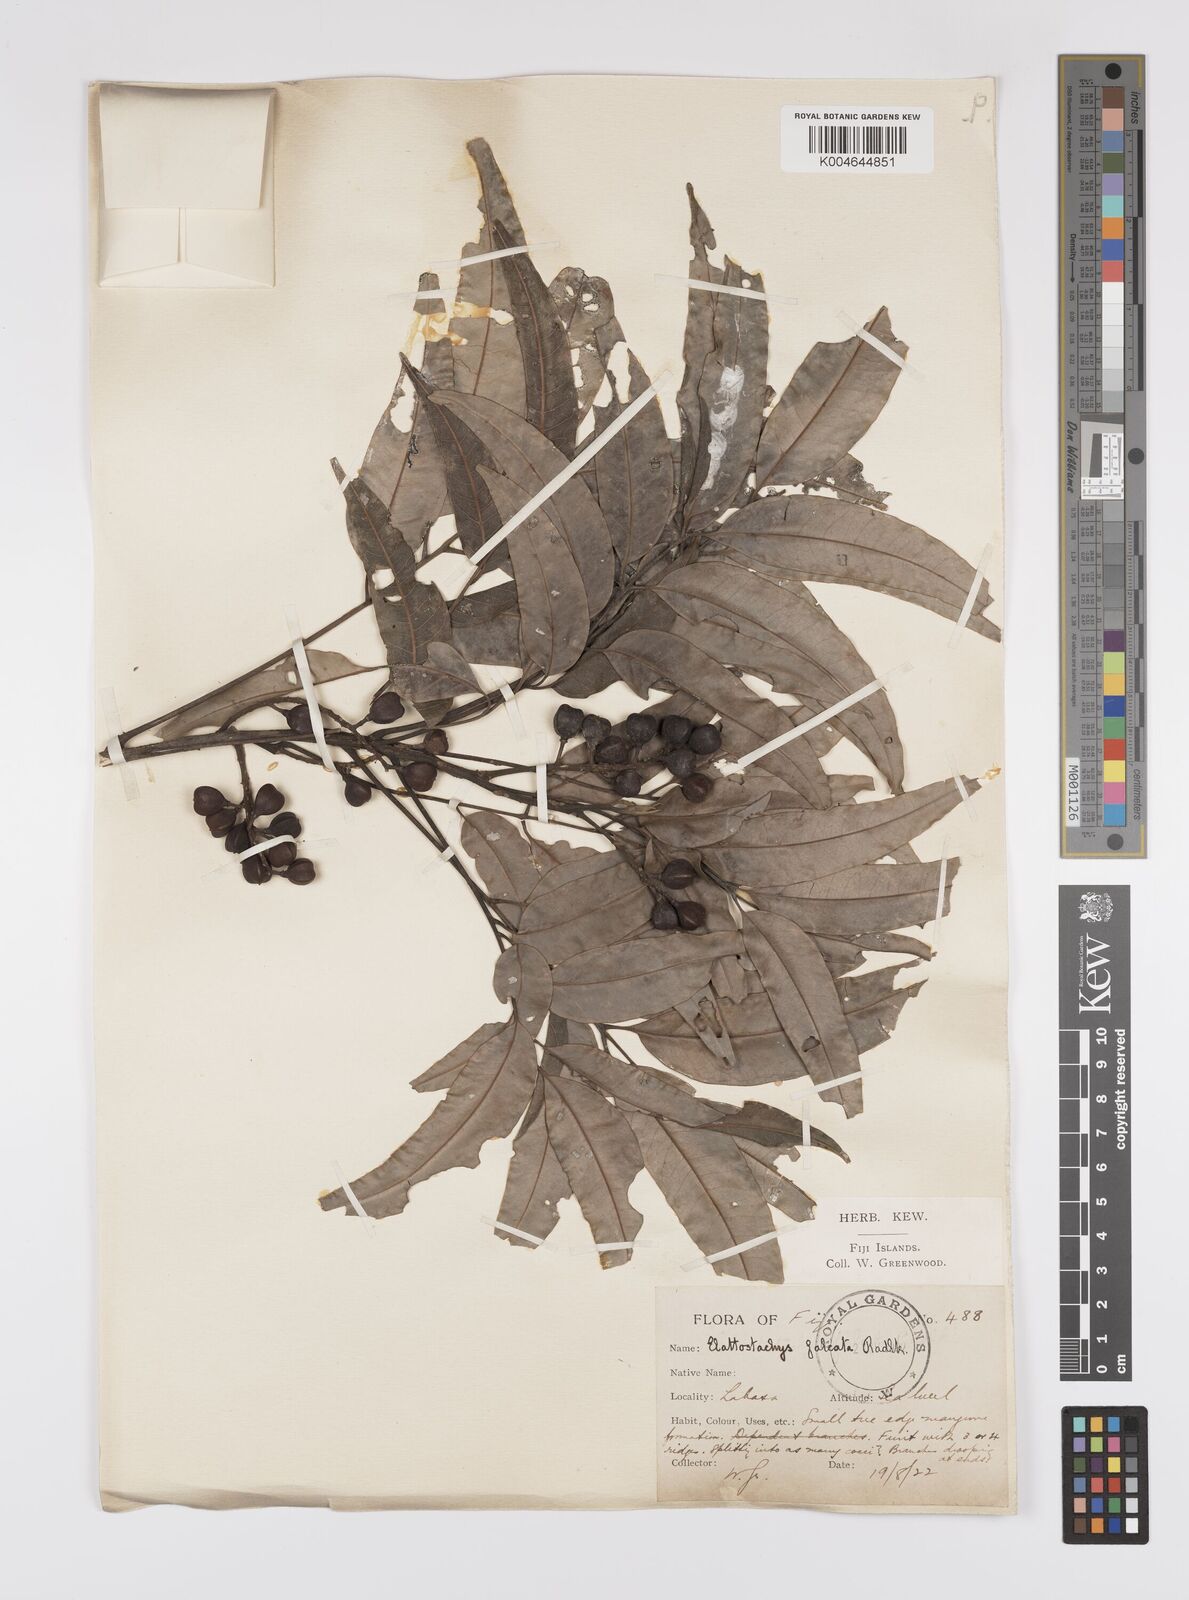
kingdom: Plantae
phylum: Tracheophyta
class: Magnoliopsida
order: Sapindales
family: Sapindaceae
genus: Elattostachys
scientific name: Elattostachys apetala
